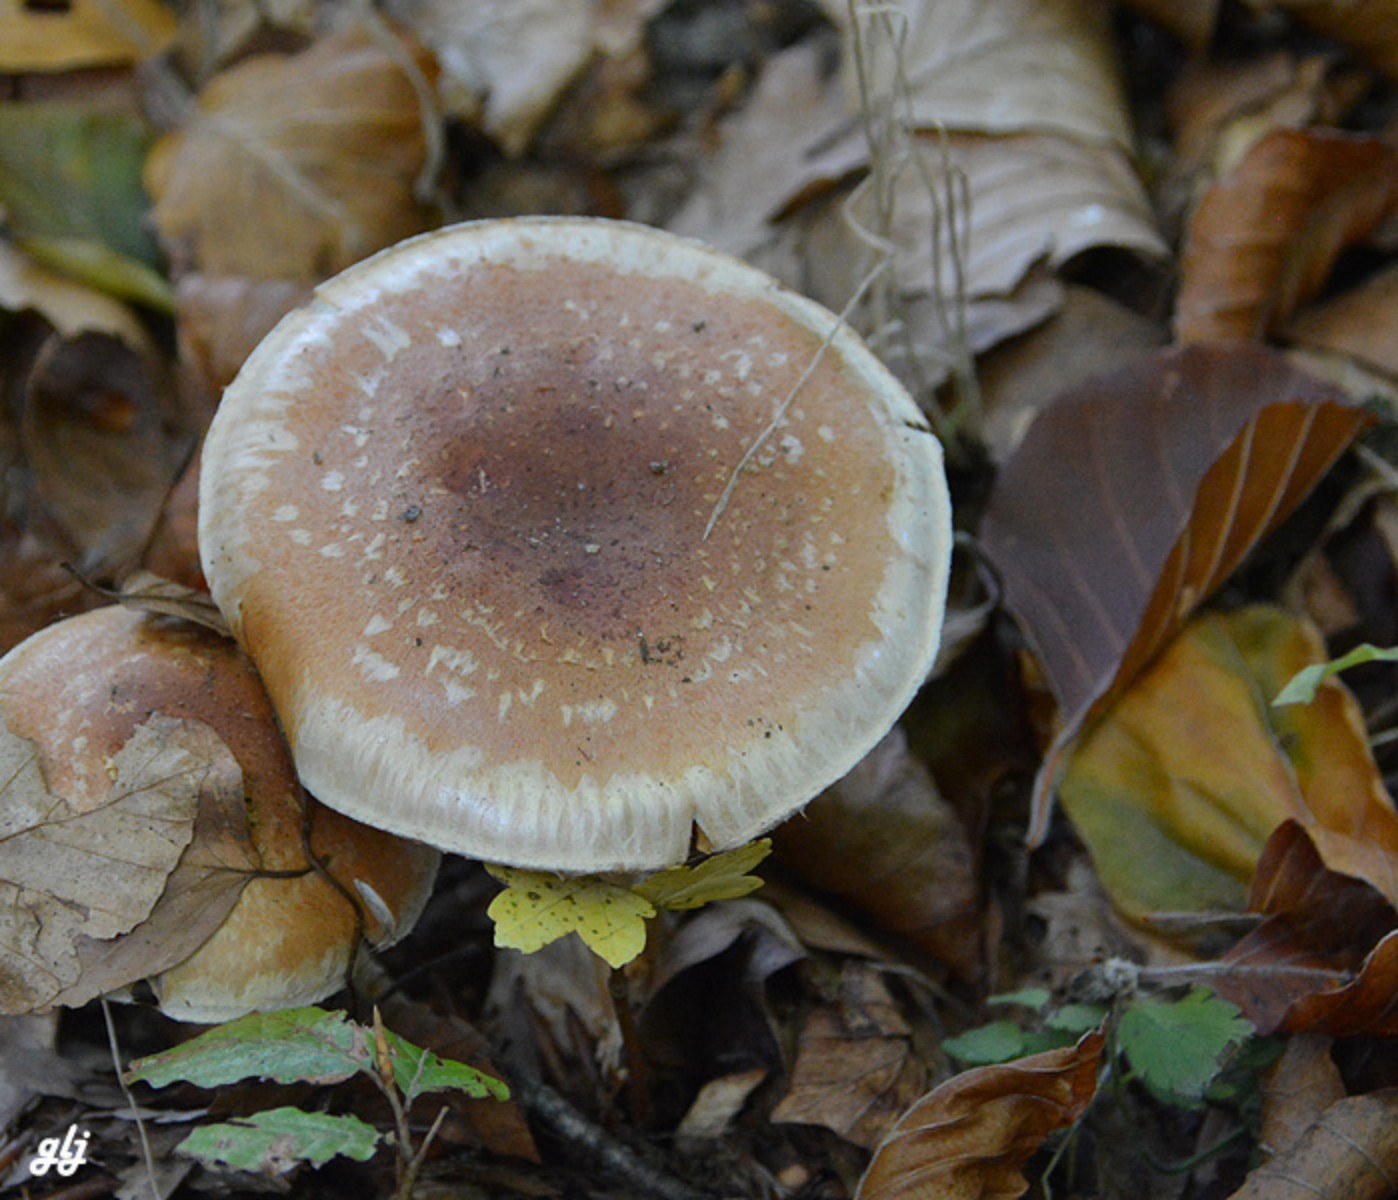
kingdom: Fungi
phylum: Basidiomycota
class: Agaricomycetes
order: Agaricales
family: Strophariaceae
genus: Pholiota
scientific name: Pholiota
